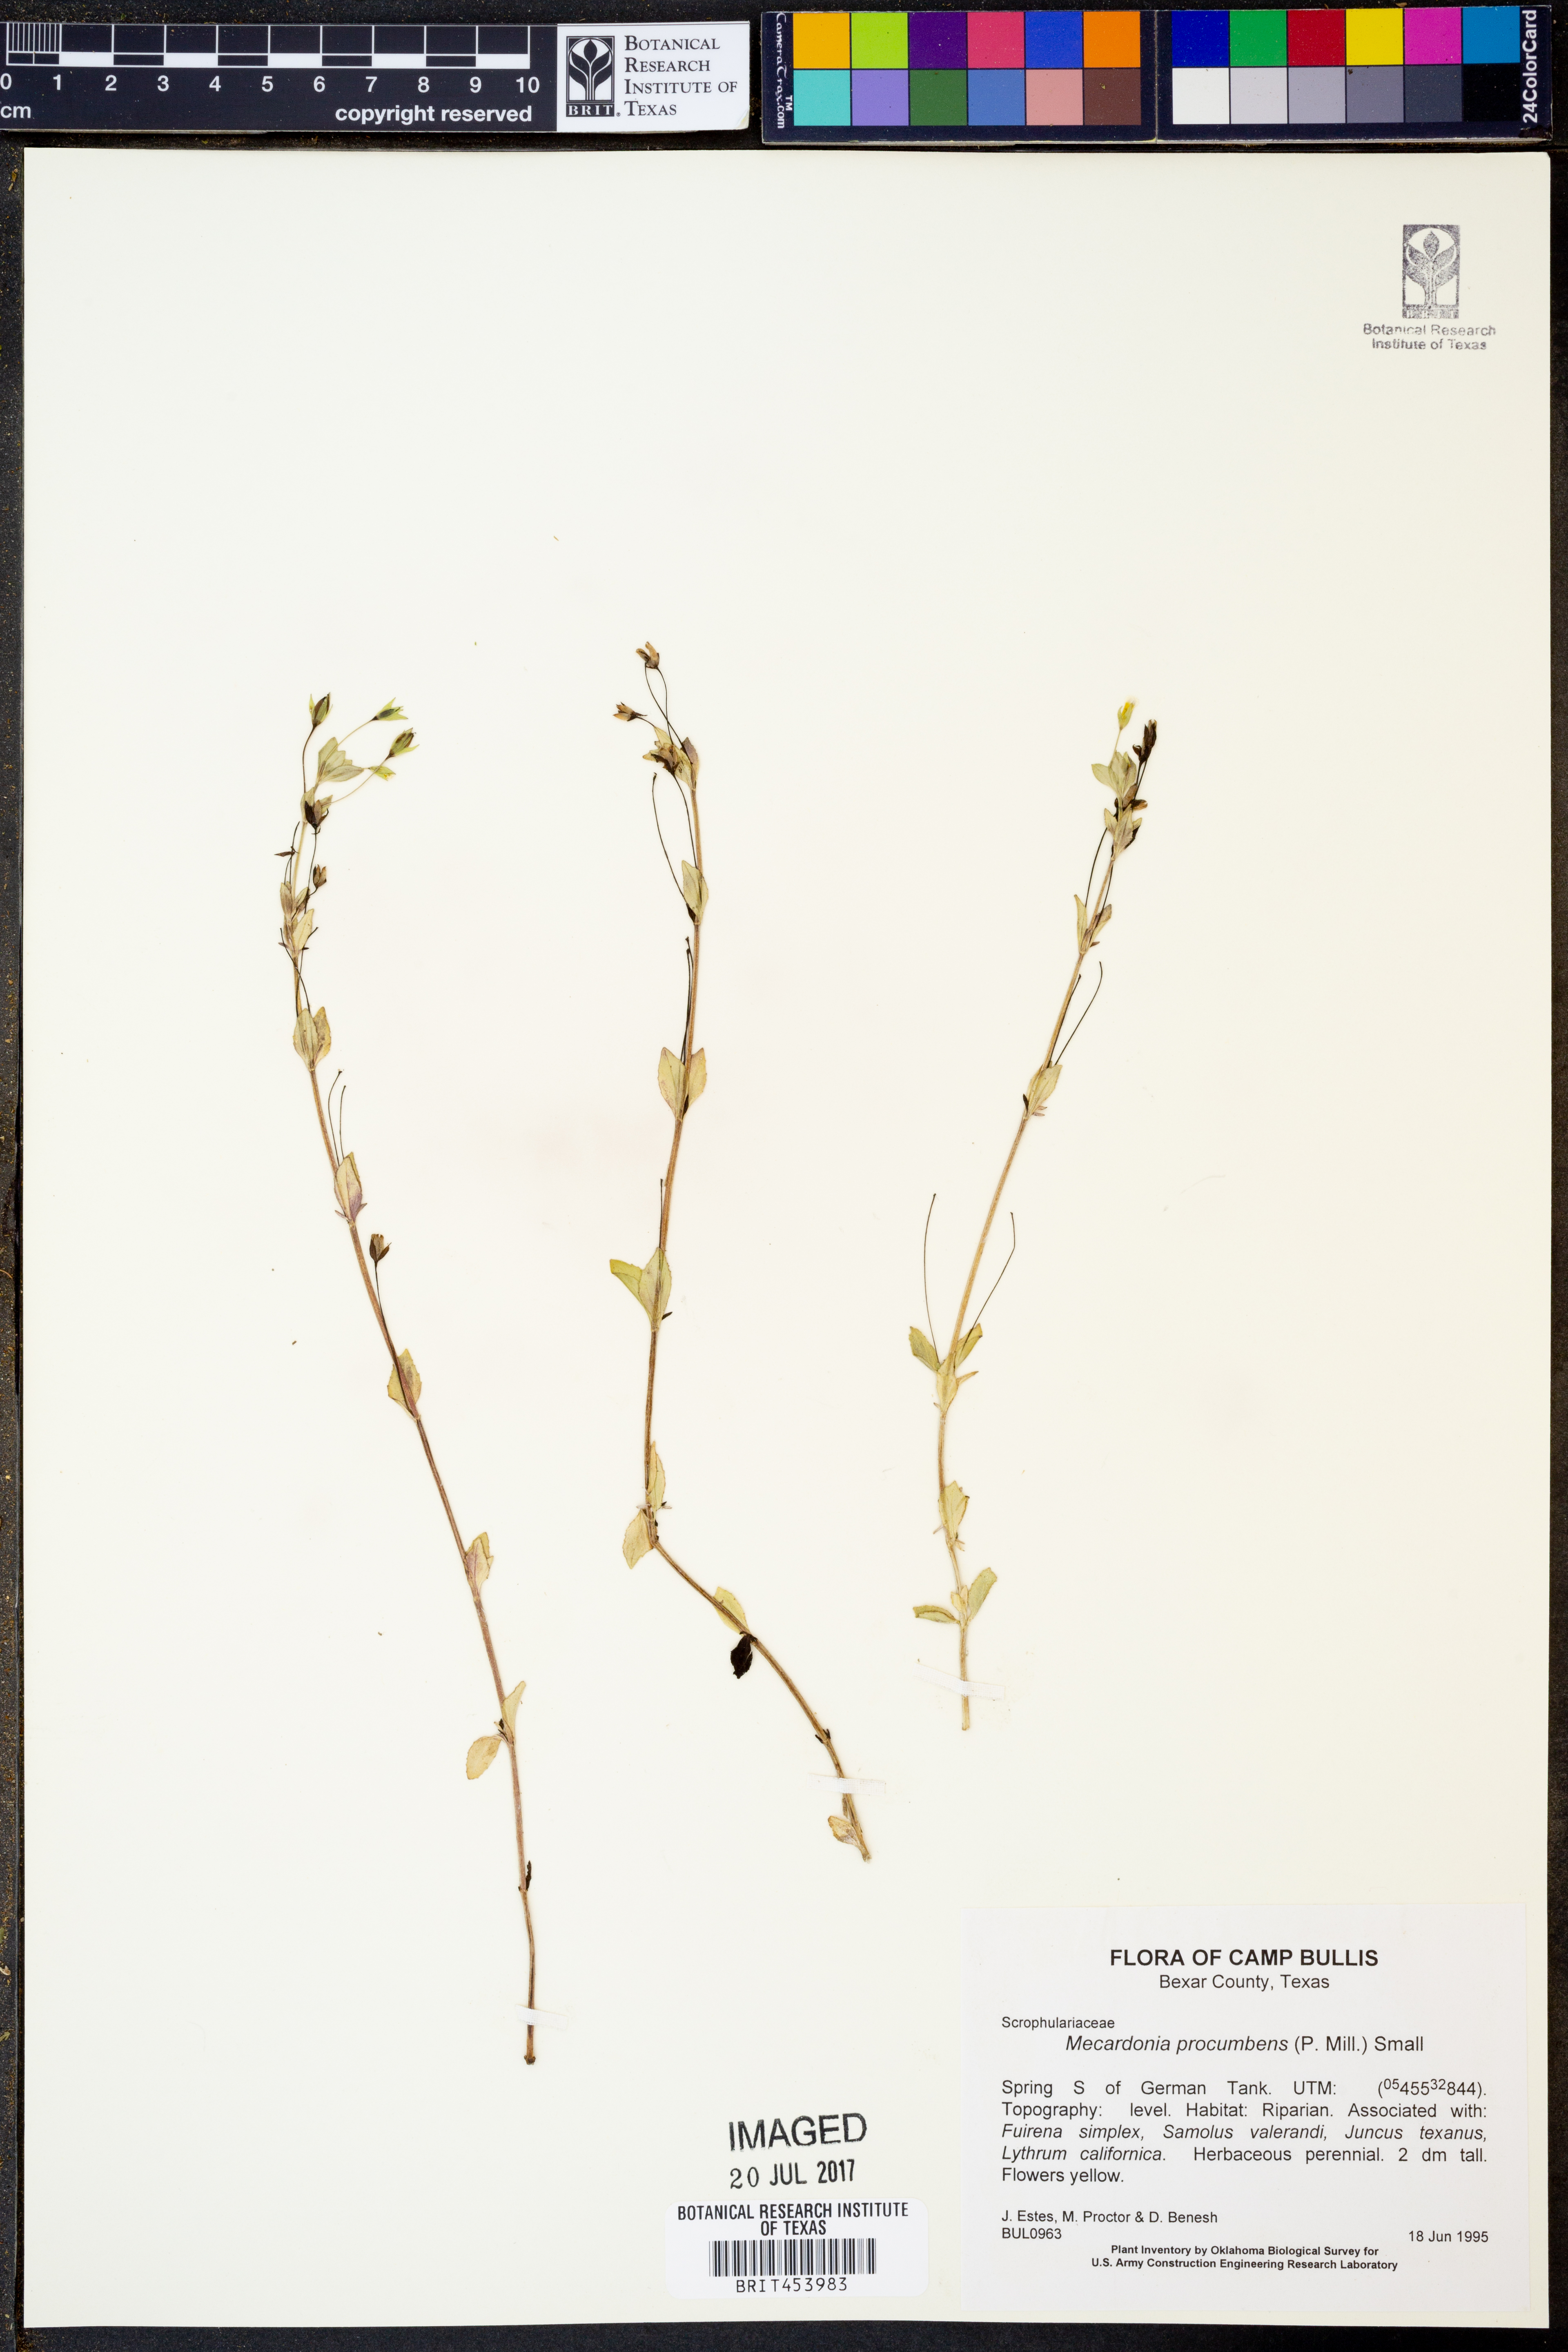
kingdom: Plantae
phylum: Tracheophyta
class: Magnoliopsida
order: Lamiales
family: Plantaginaceae
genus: Mecardonia
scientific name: Mecardonia procumbens
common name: Baby jump-up
